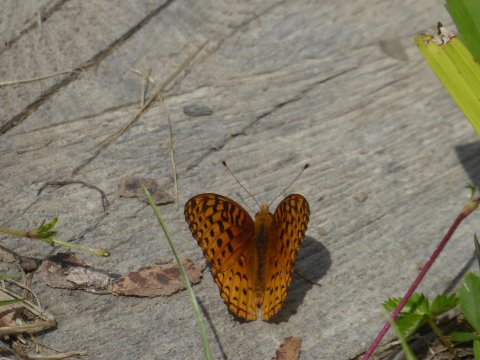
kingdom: Animalia
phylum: Arthropoda
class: Insecta
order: Lepidoptera
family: Nymphalidae
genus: Speyeria
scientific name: Speyeria cybele
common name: Great Spangled Fritillary
